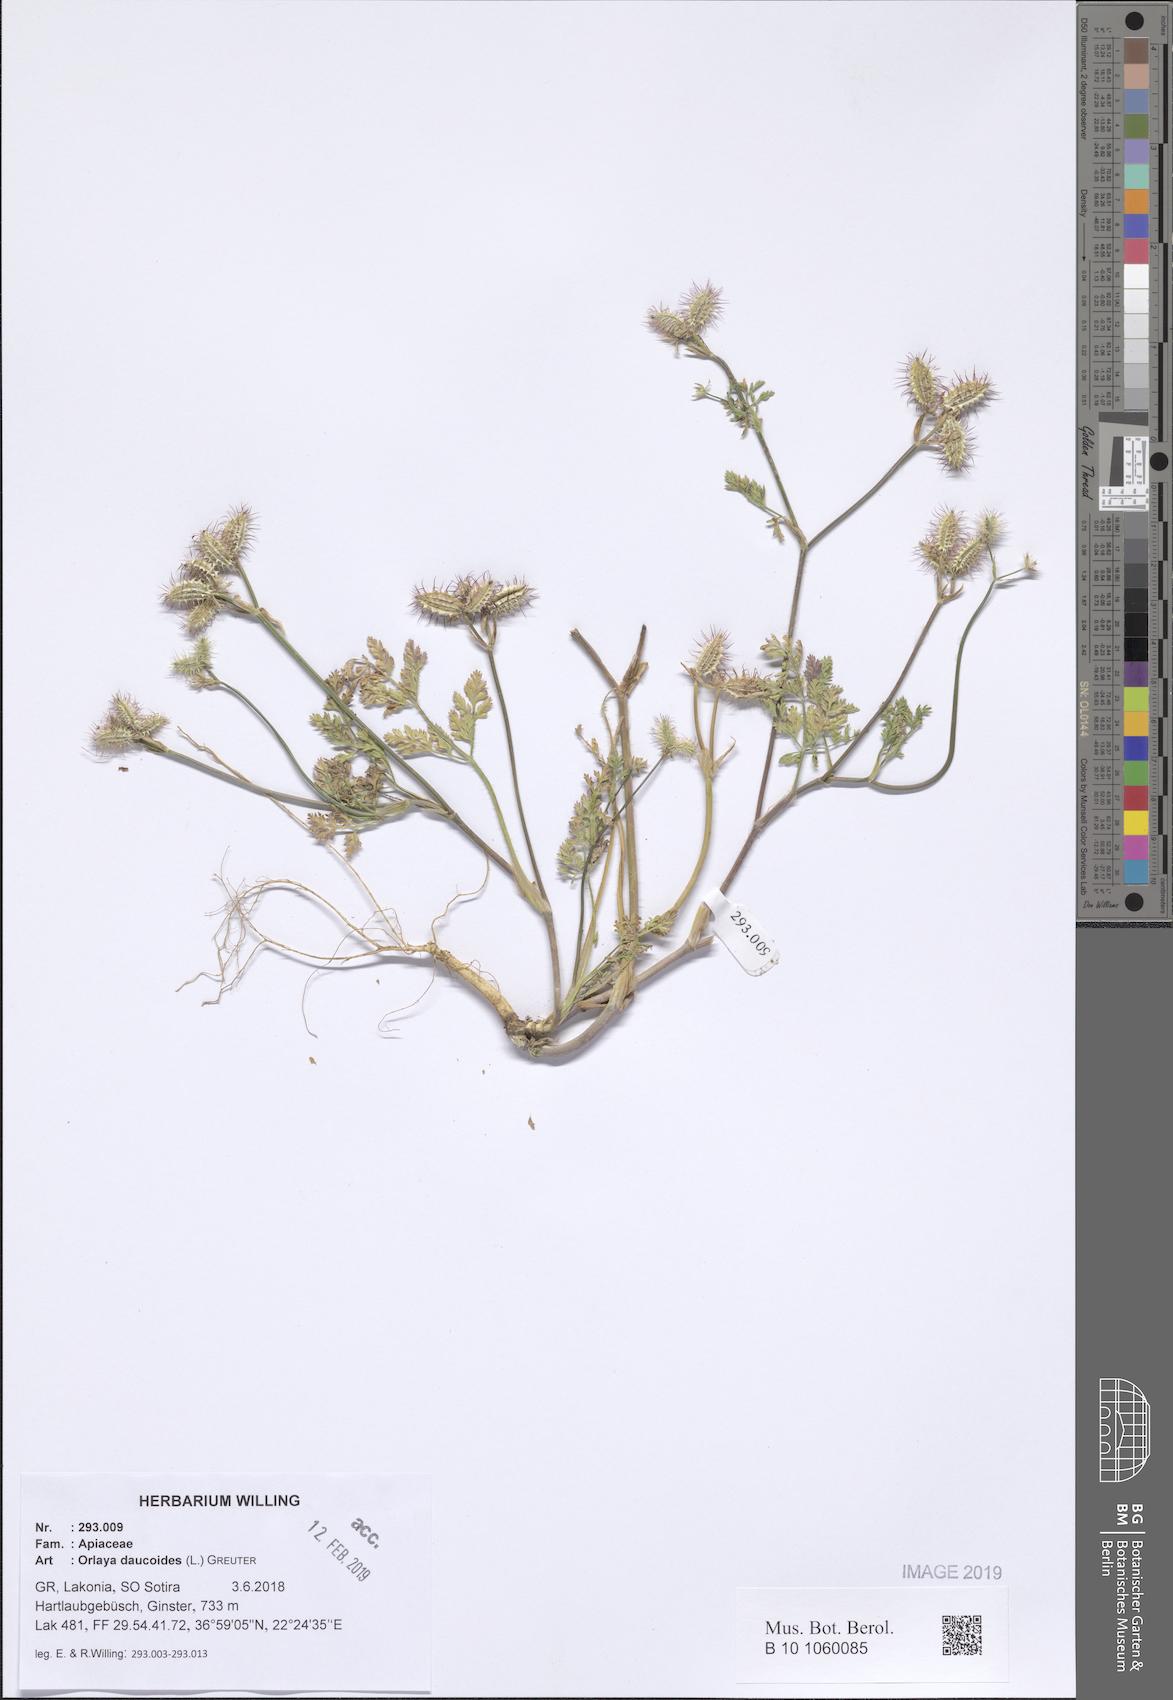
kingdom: Plantae
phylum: Tracheophyta
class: Magnoliopsida
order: Apiales
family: Apiaceae
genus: Orlaya
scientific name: Orlaya daucoides
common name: Flat-fruit orlaya
